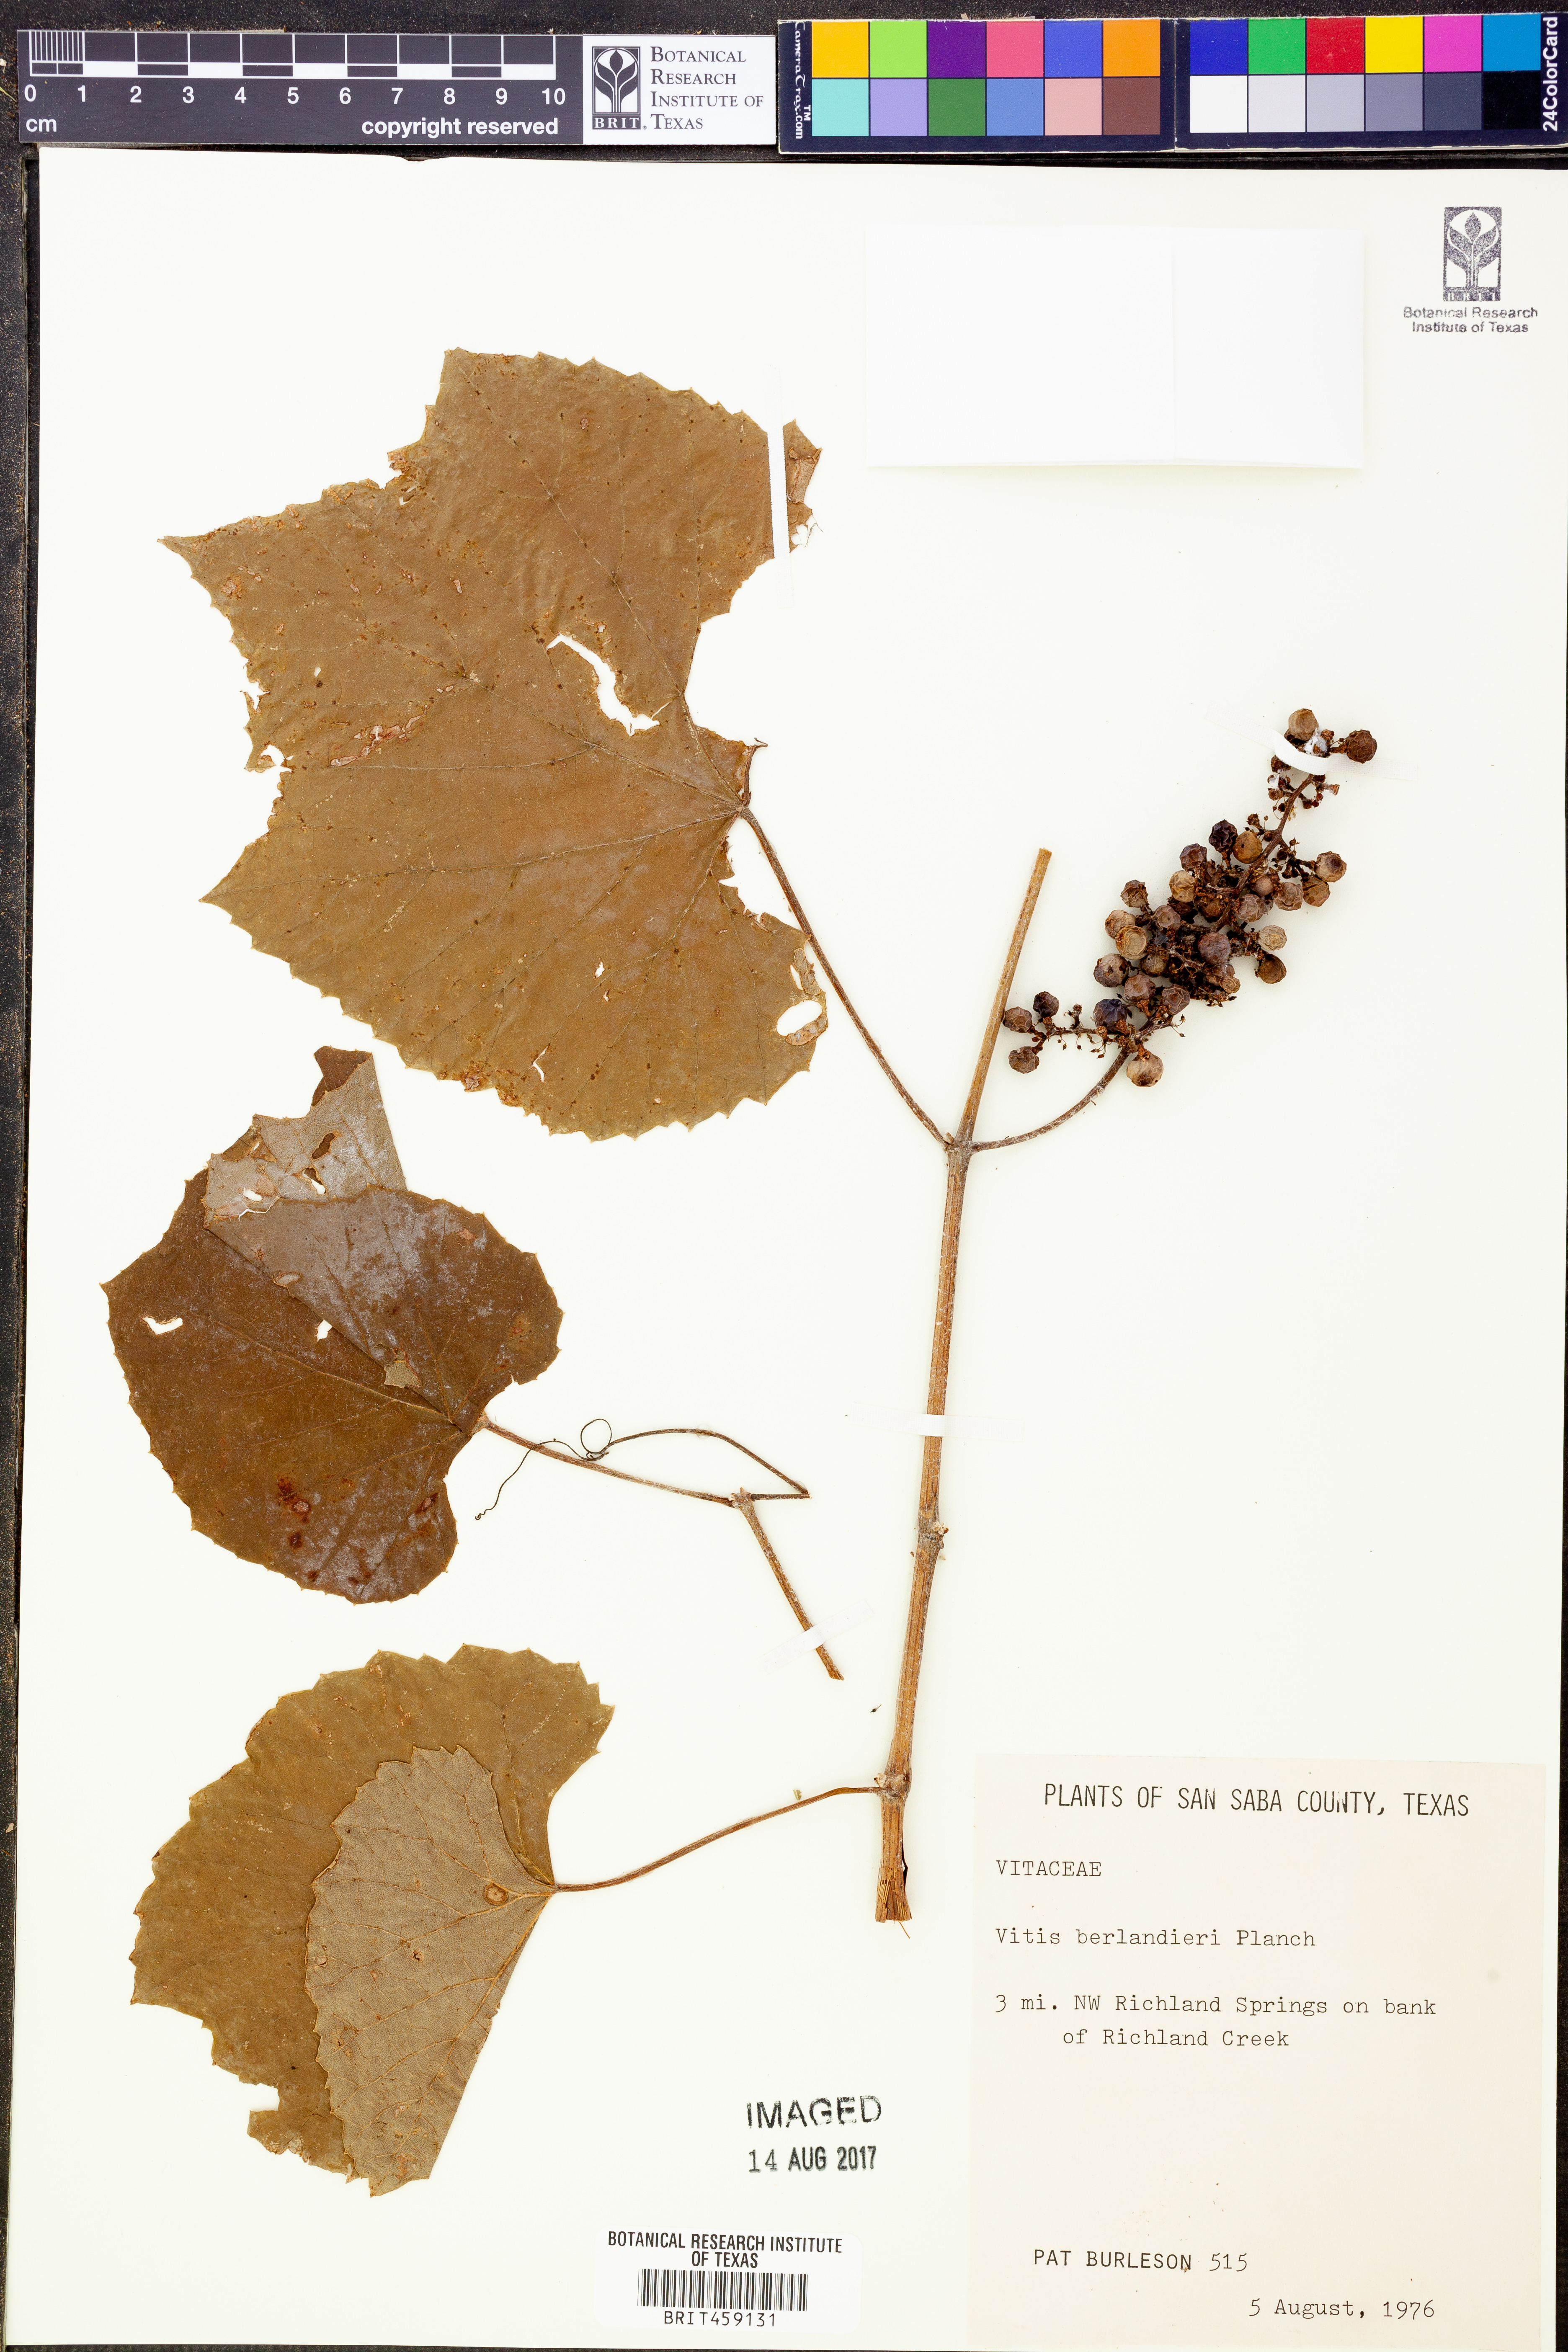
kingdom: Plantae
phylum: Tracheophyta
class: Magnoliopsida
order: Vitales
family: Vitaceae
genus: Vitis
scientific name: Vitis cinerea
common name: Ashy grape
